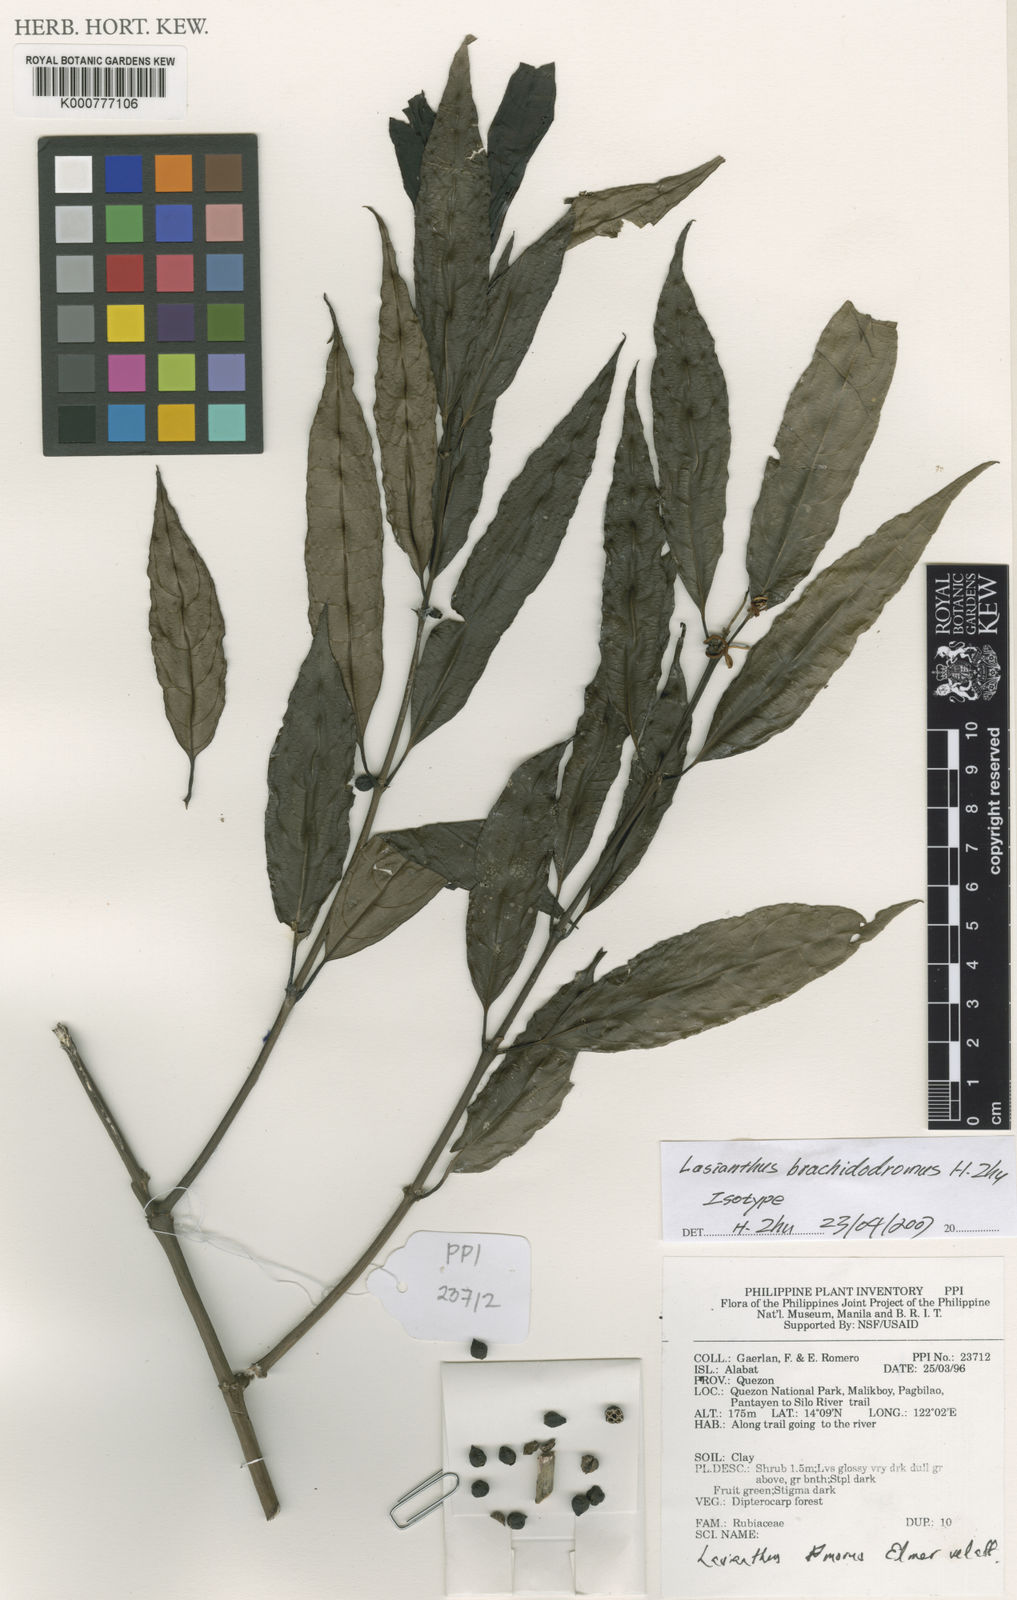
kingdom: Plantae
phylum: Tracheophyta
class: Magnoliopsida
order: Gentianales
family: Rubiaceae
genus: Lasianthus
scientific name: Lasianthus
